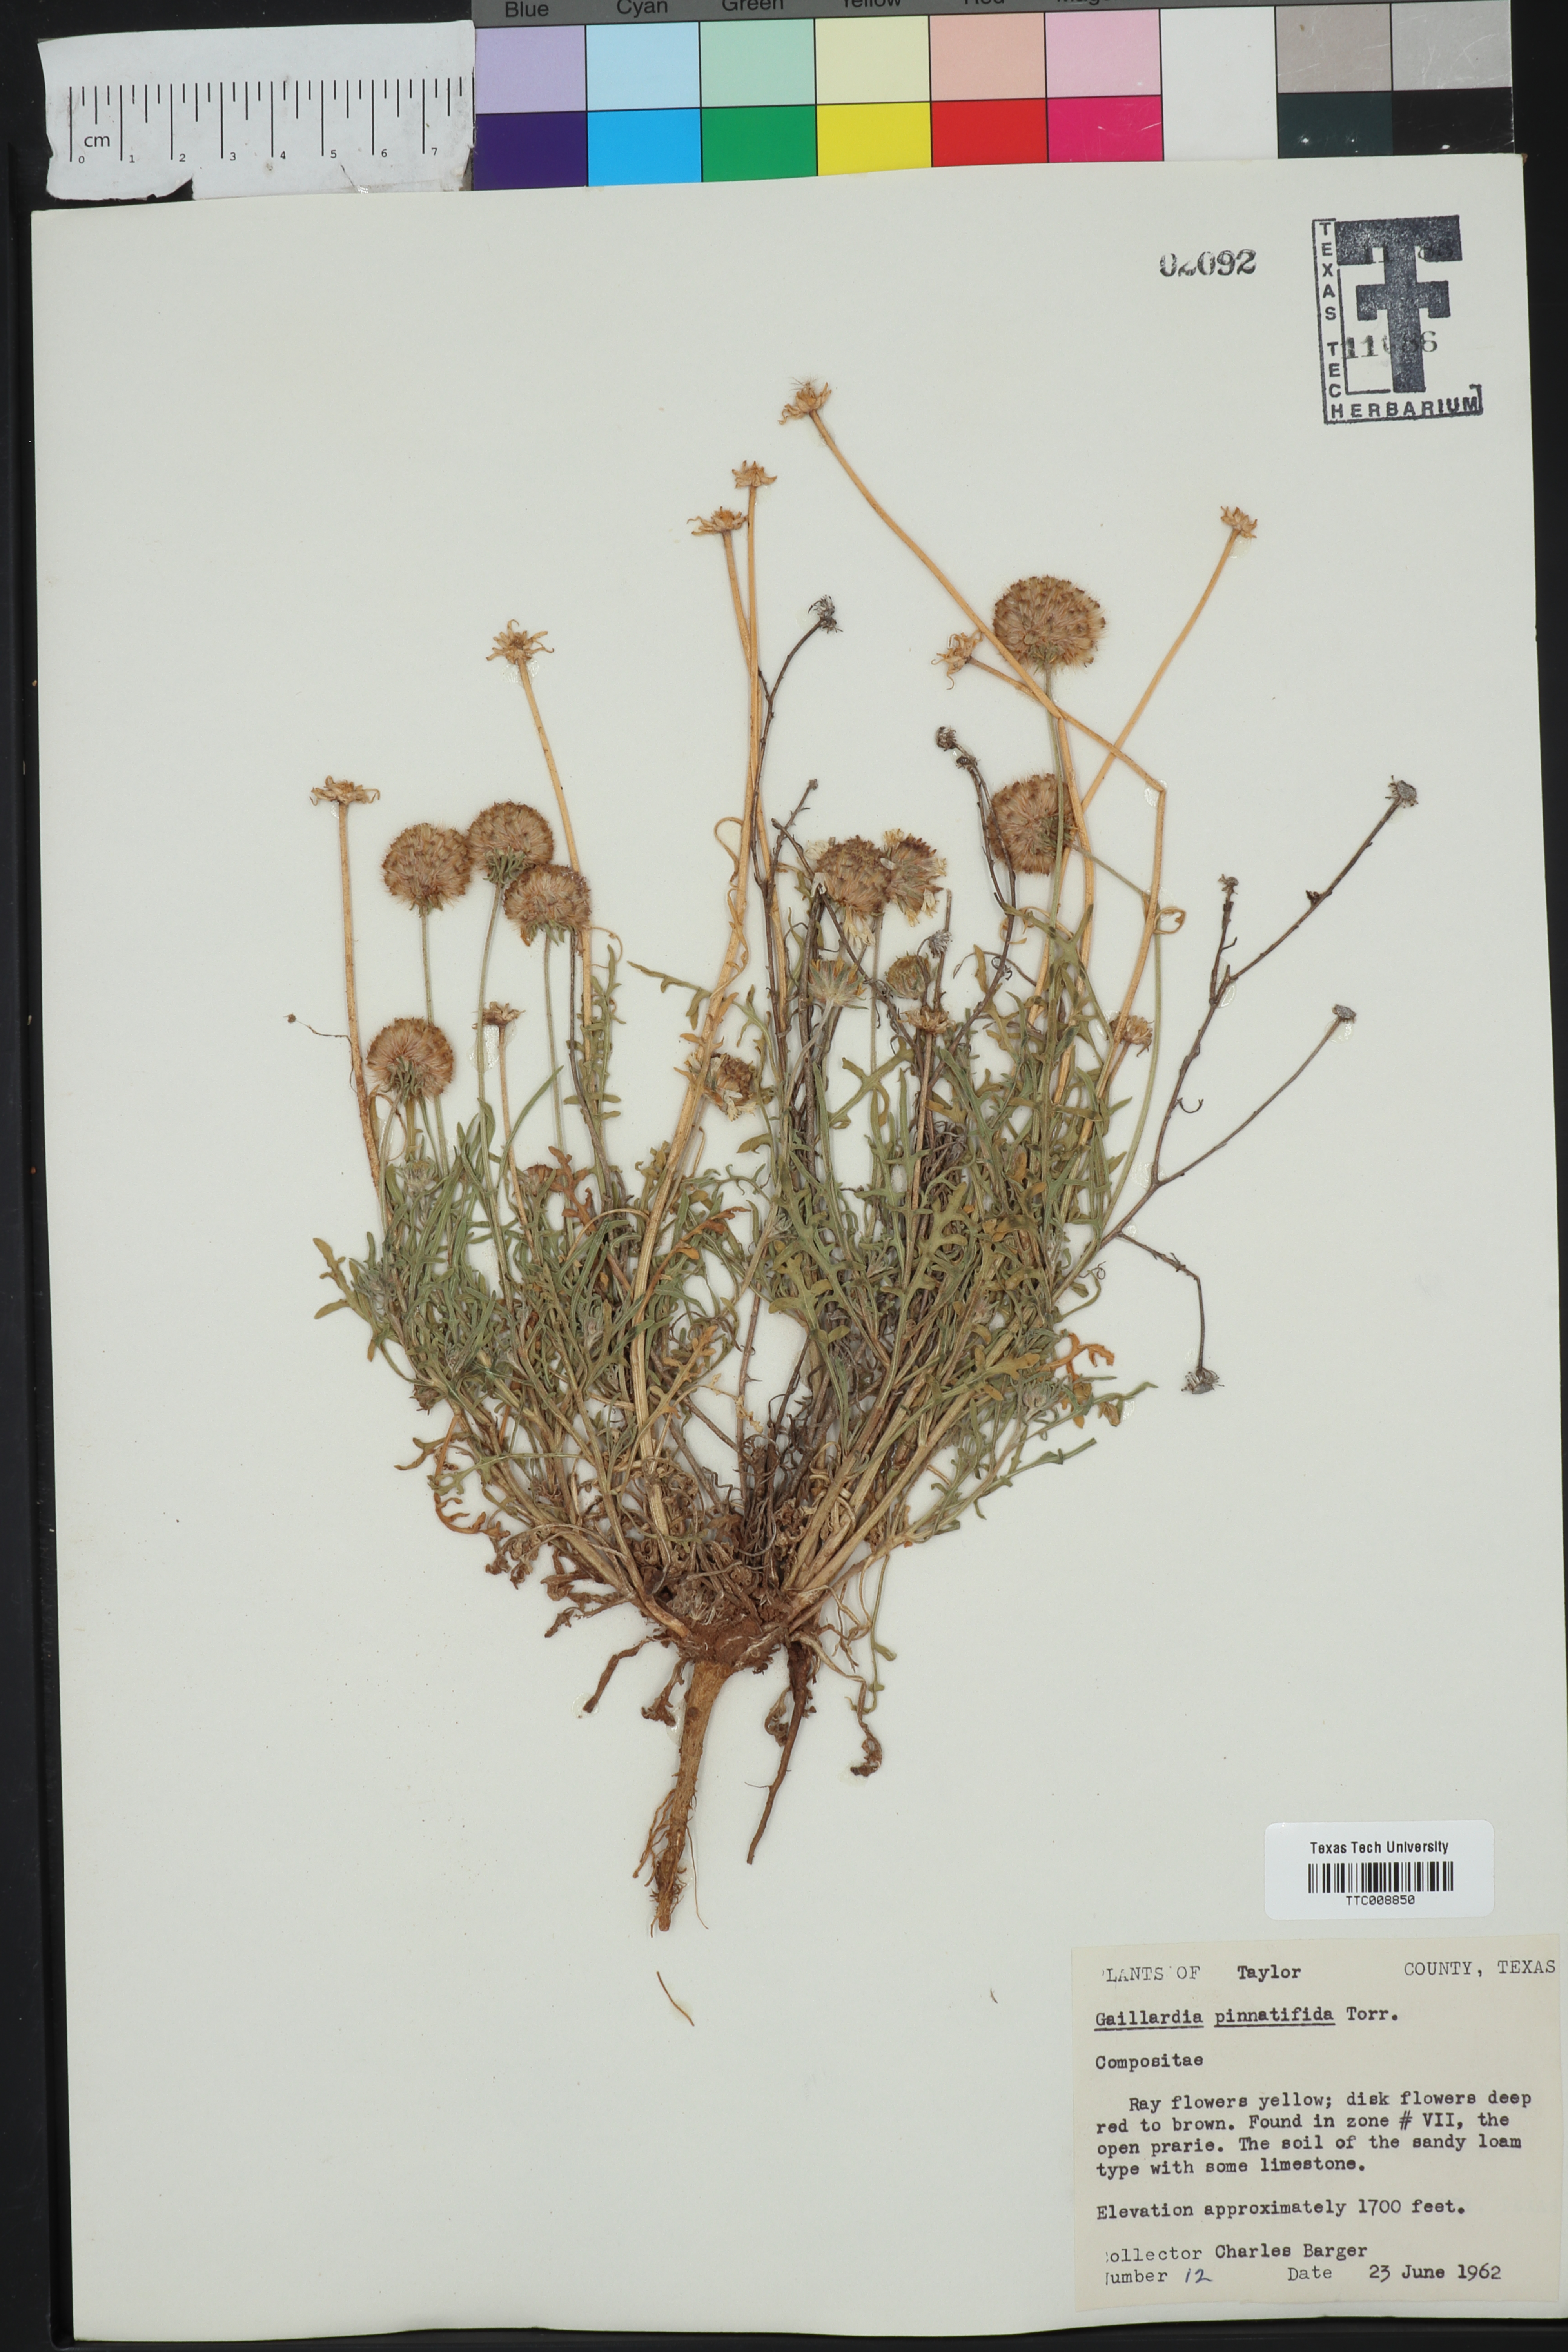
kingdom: Plantae
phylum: Tracheophyta
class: Magnoliopsida
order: Asterales
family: Asteraceae
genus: Gaillardia
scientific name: Gaillardia pinnatifida
